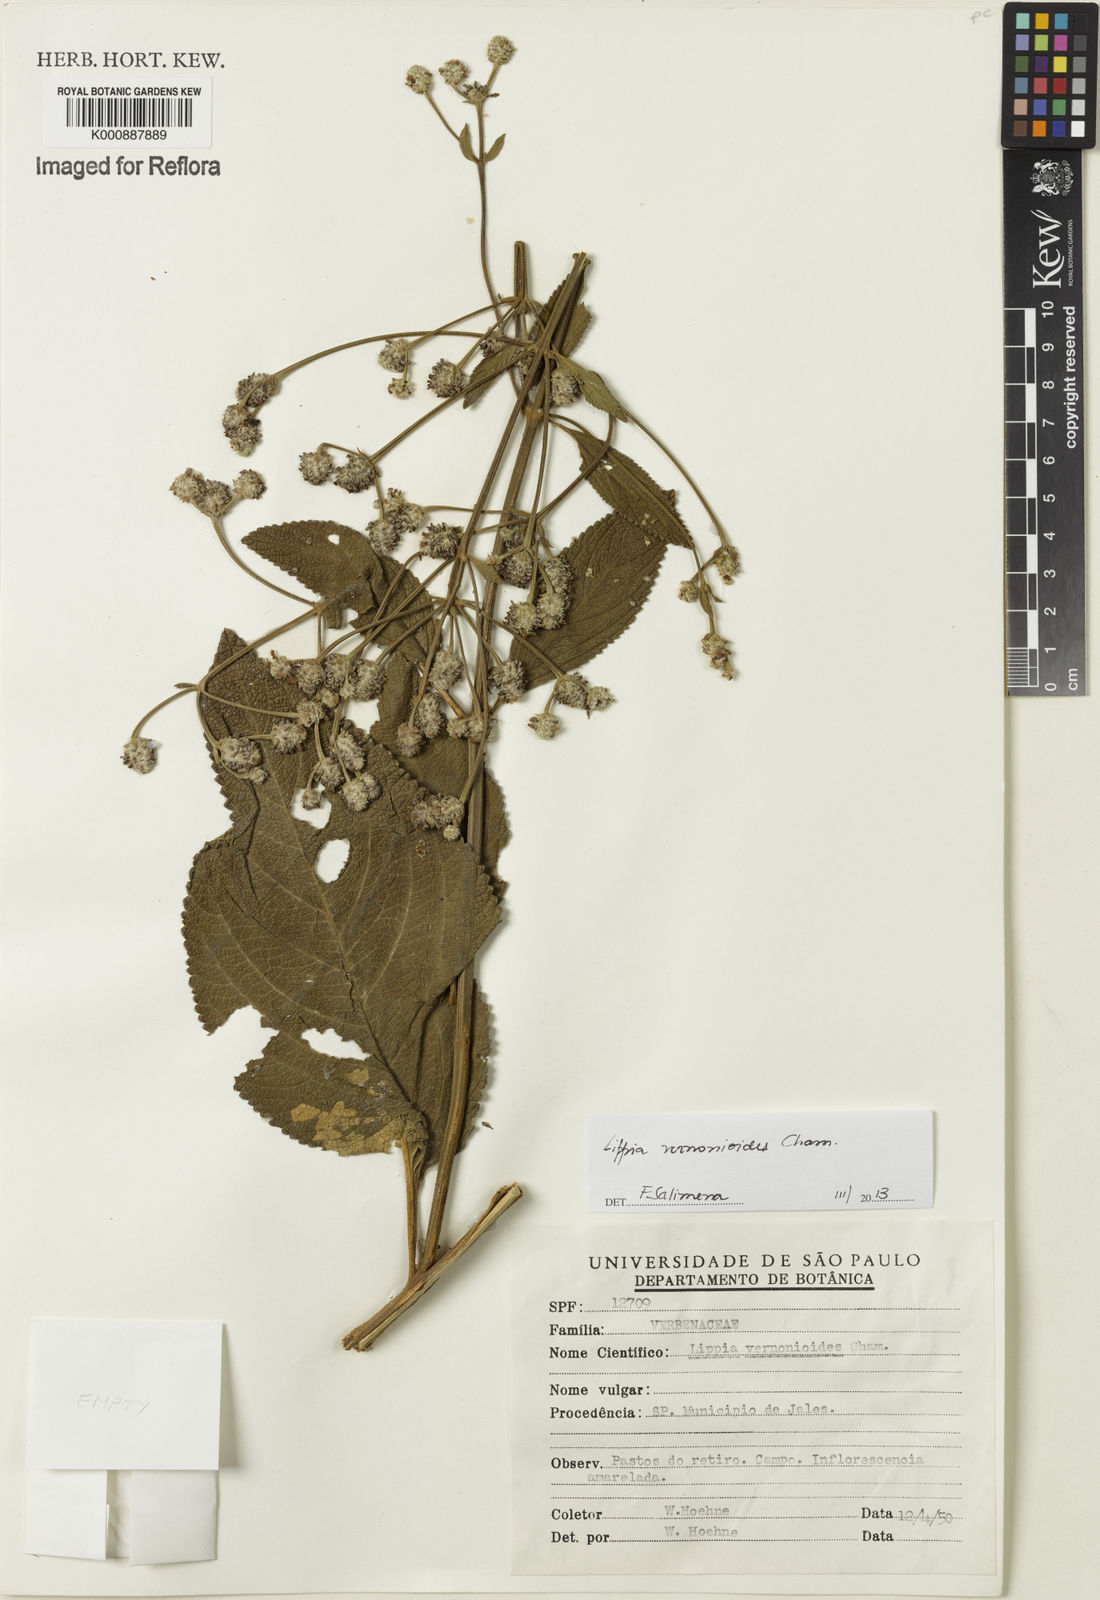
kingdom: Plantae
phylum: Tracheophyta
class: Magnoliopsida
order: Lamiales
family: Verbenaceae
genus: Lippia
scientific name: Lippia vernonioides
